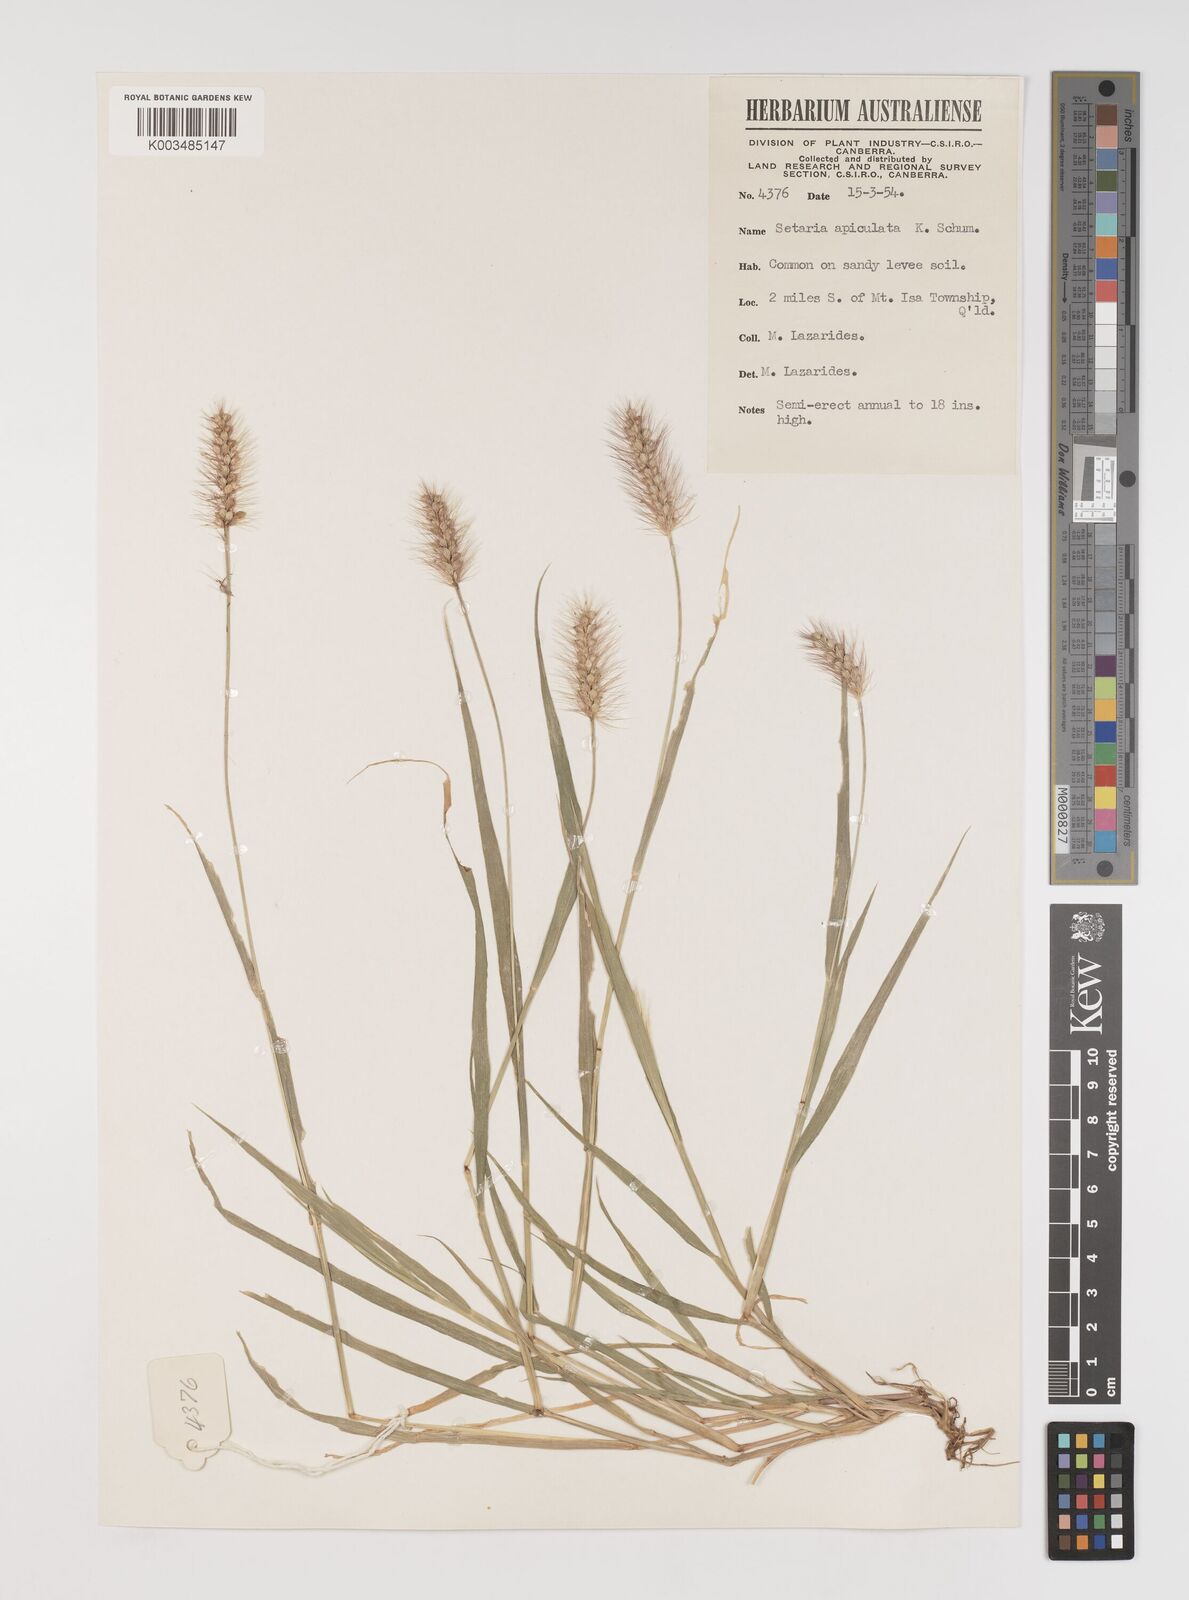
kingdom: Plantae
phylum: Tracheophyta
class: Liliopsida
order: Poales
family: Poaceae
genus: Setaria
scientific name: Setaria apiculata
